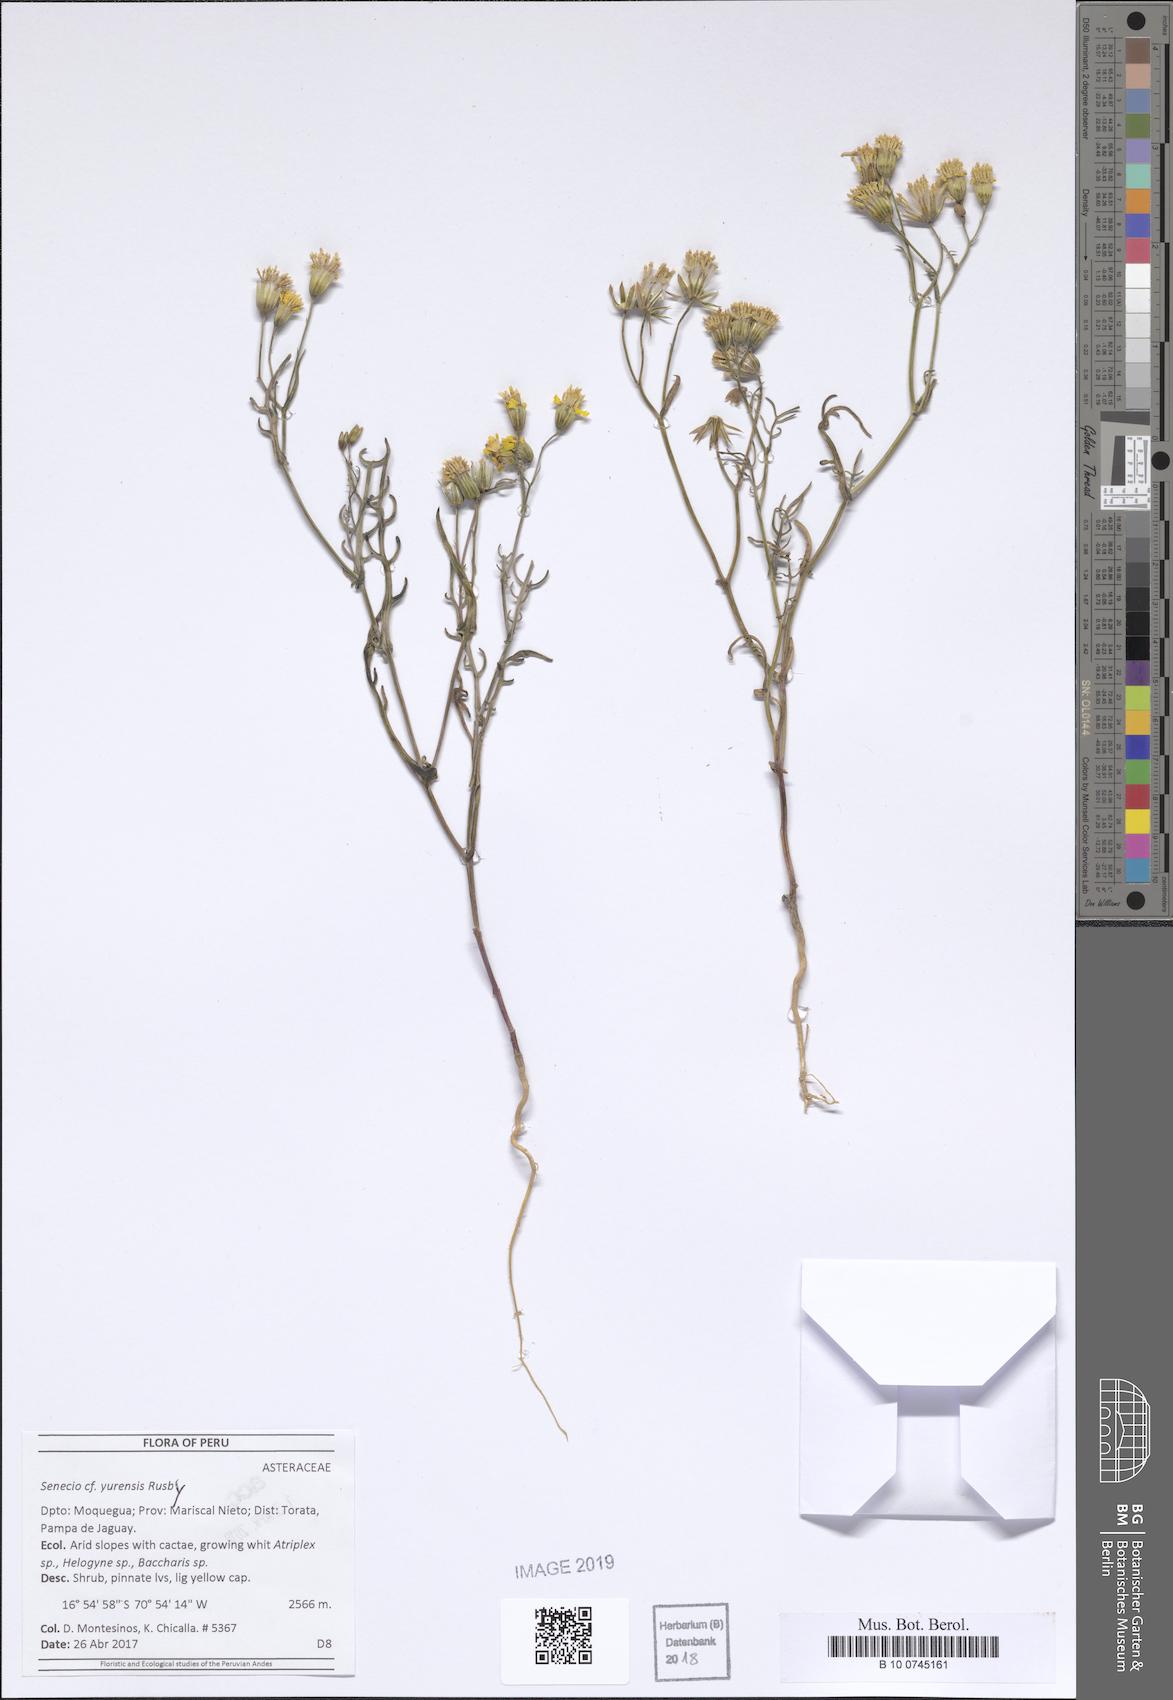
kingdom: Plantae
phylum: Tracheophyta
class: Magnoliopsida
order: Asterales
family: Asteraceae
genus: Senecio
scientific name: Senecio yurensis
